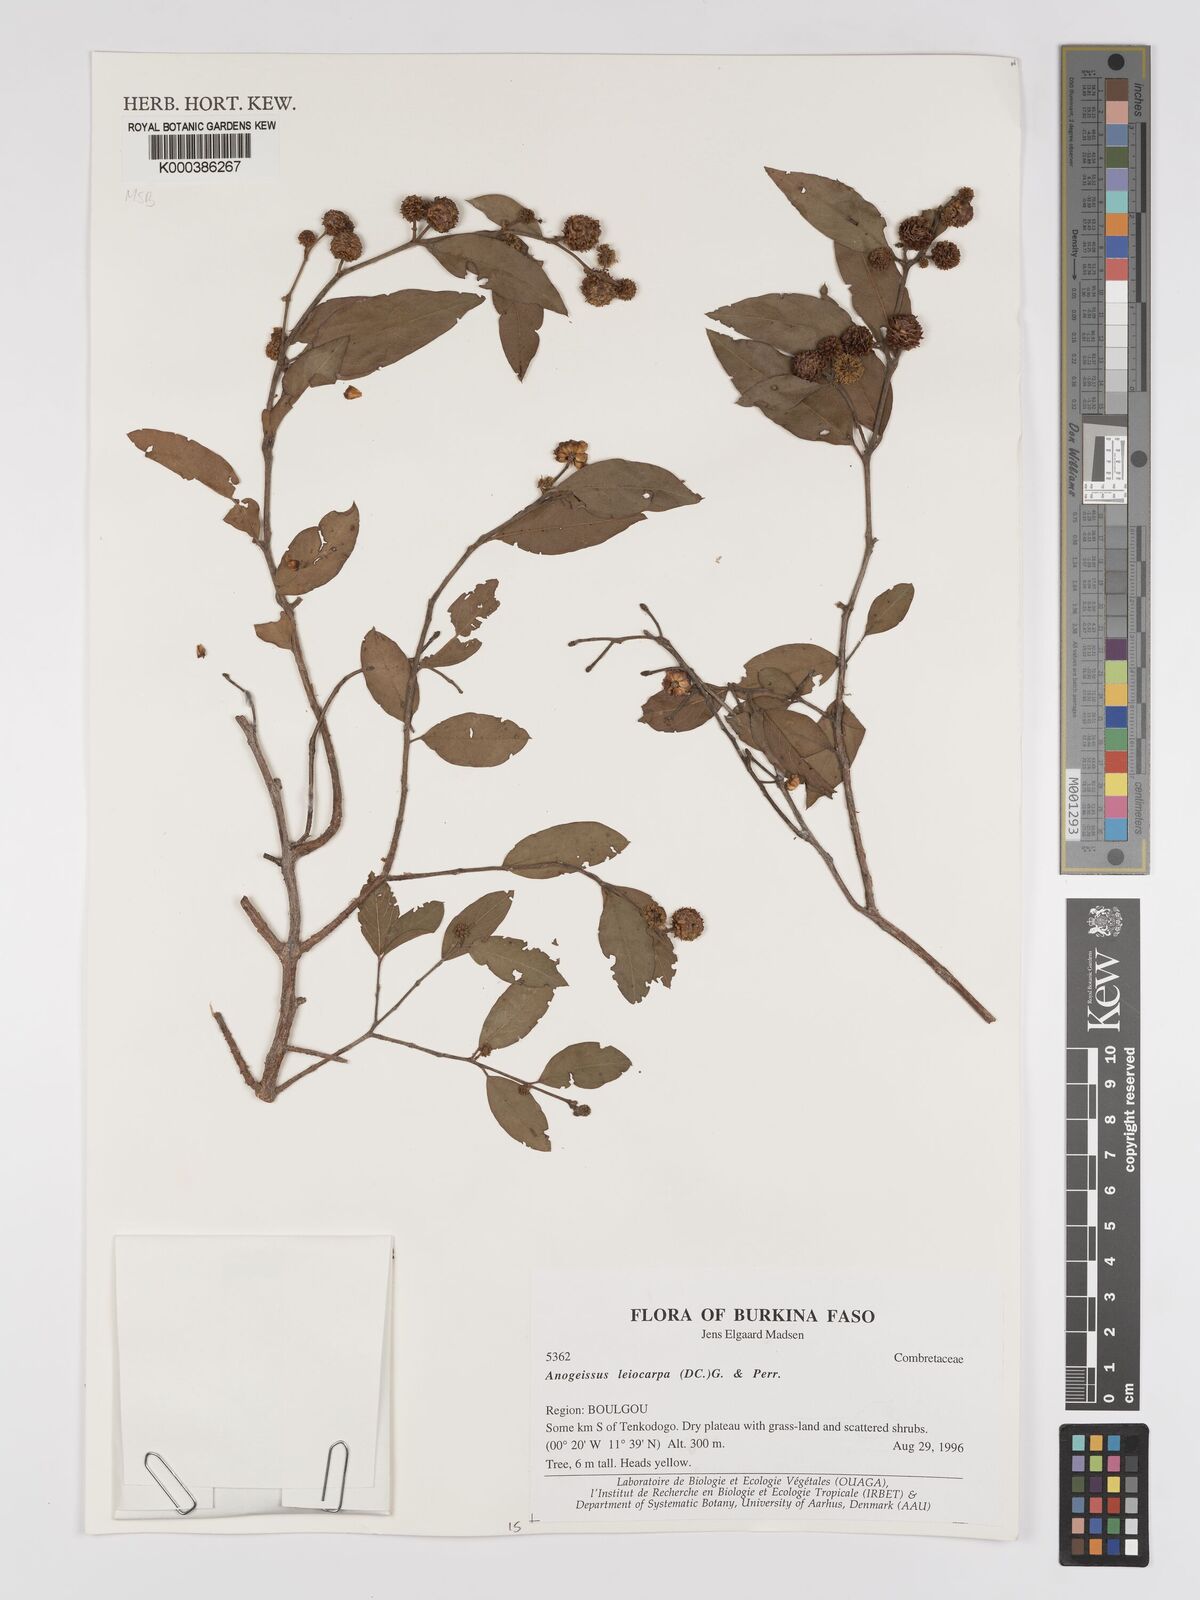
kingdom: Plantae
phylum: Tracheophyta
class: Magnoliopsida
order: Myrtales
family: Combretaceae
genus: Terminalia
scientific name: Terminalia leiocarpa
